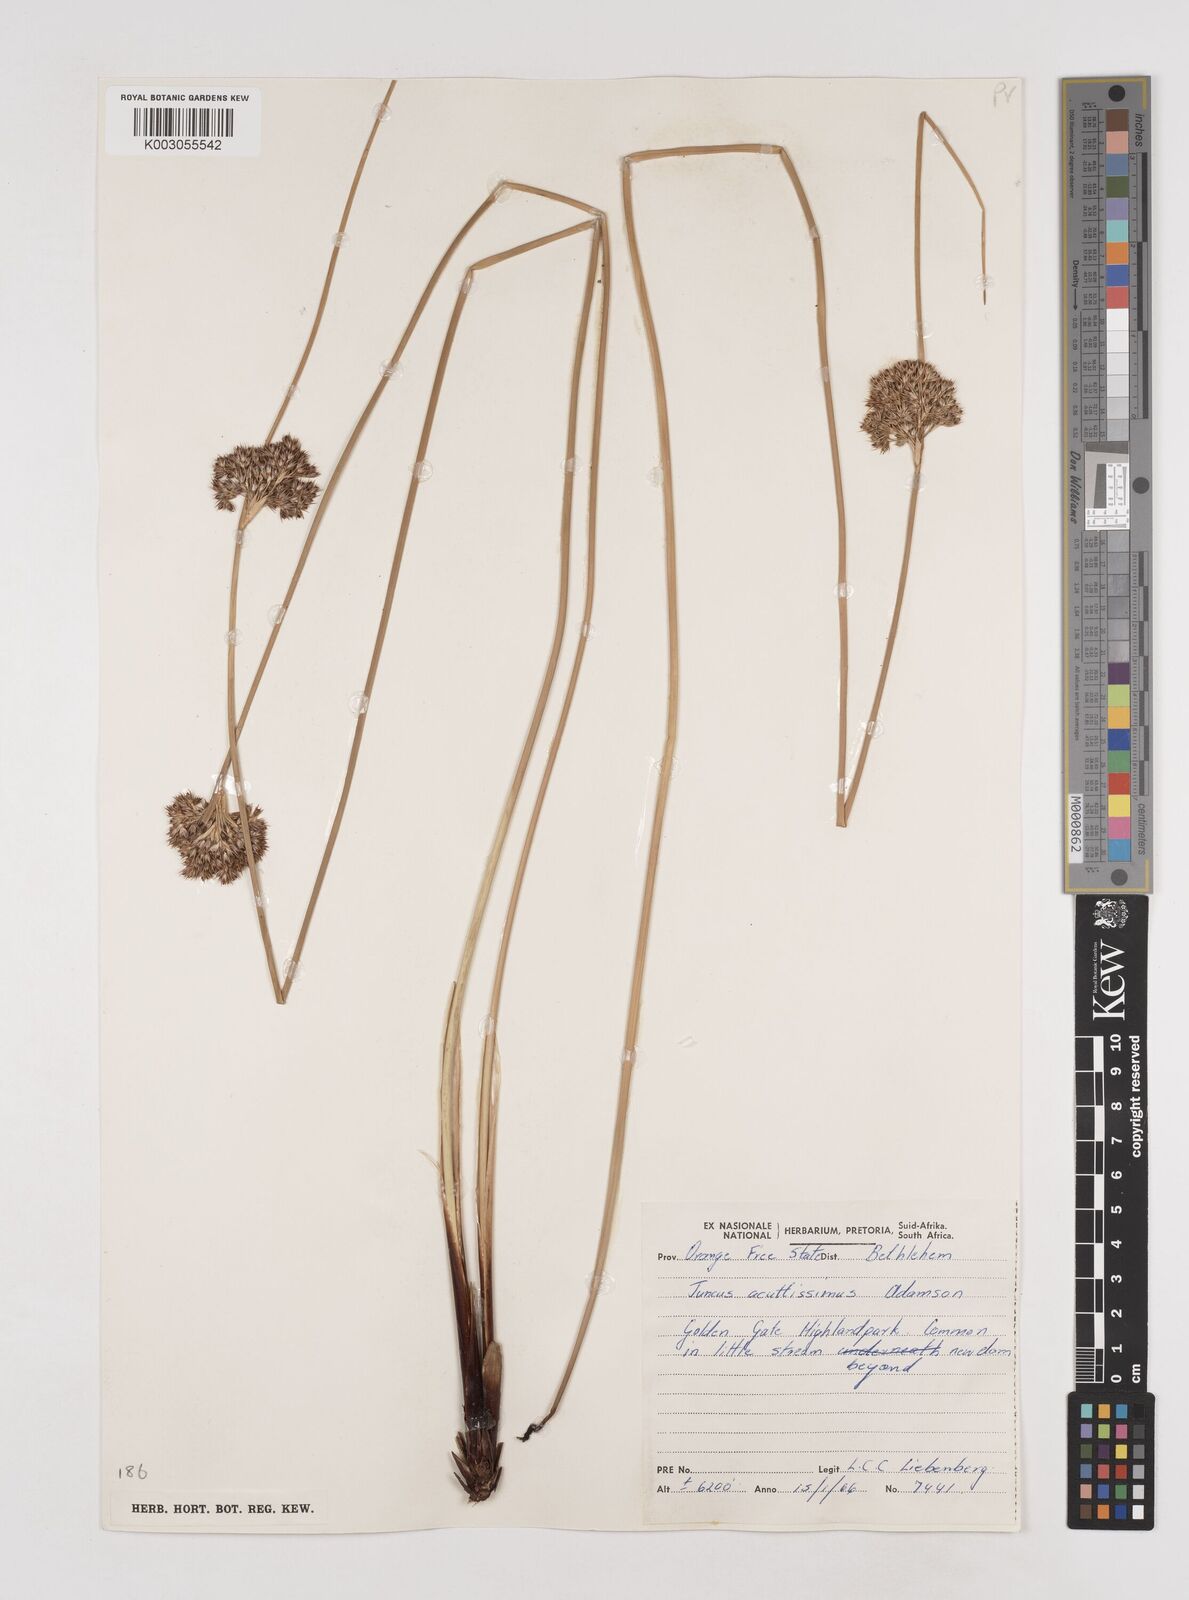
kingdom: Plantae
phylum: Tracheophyta
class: Liliopsida
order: Poales
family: Juncaceae
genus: Juncus
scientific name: Juncus inflexus
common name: Hard rush
